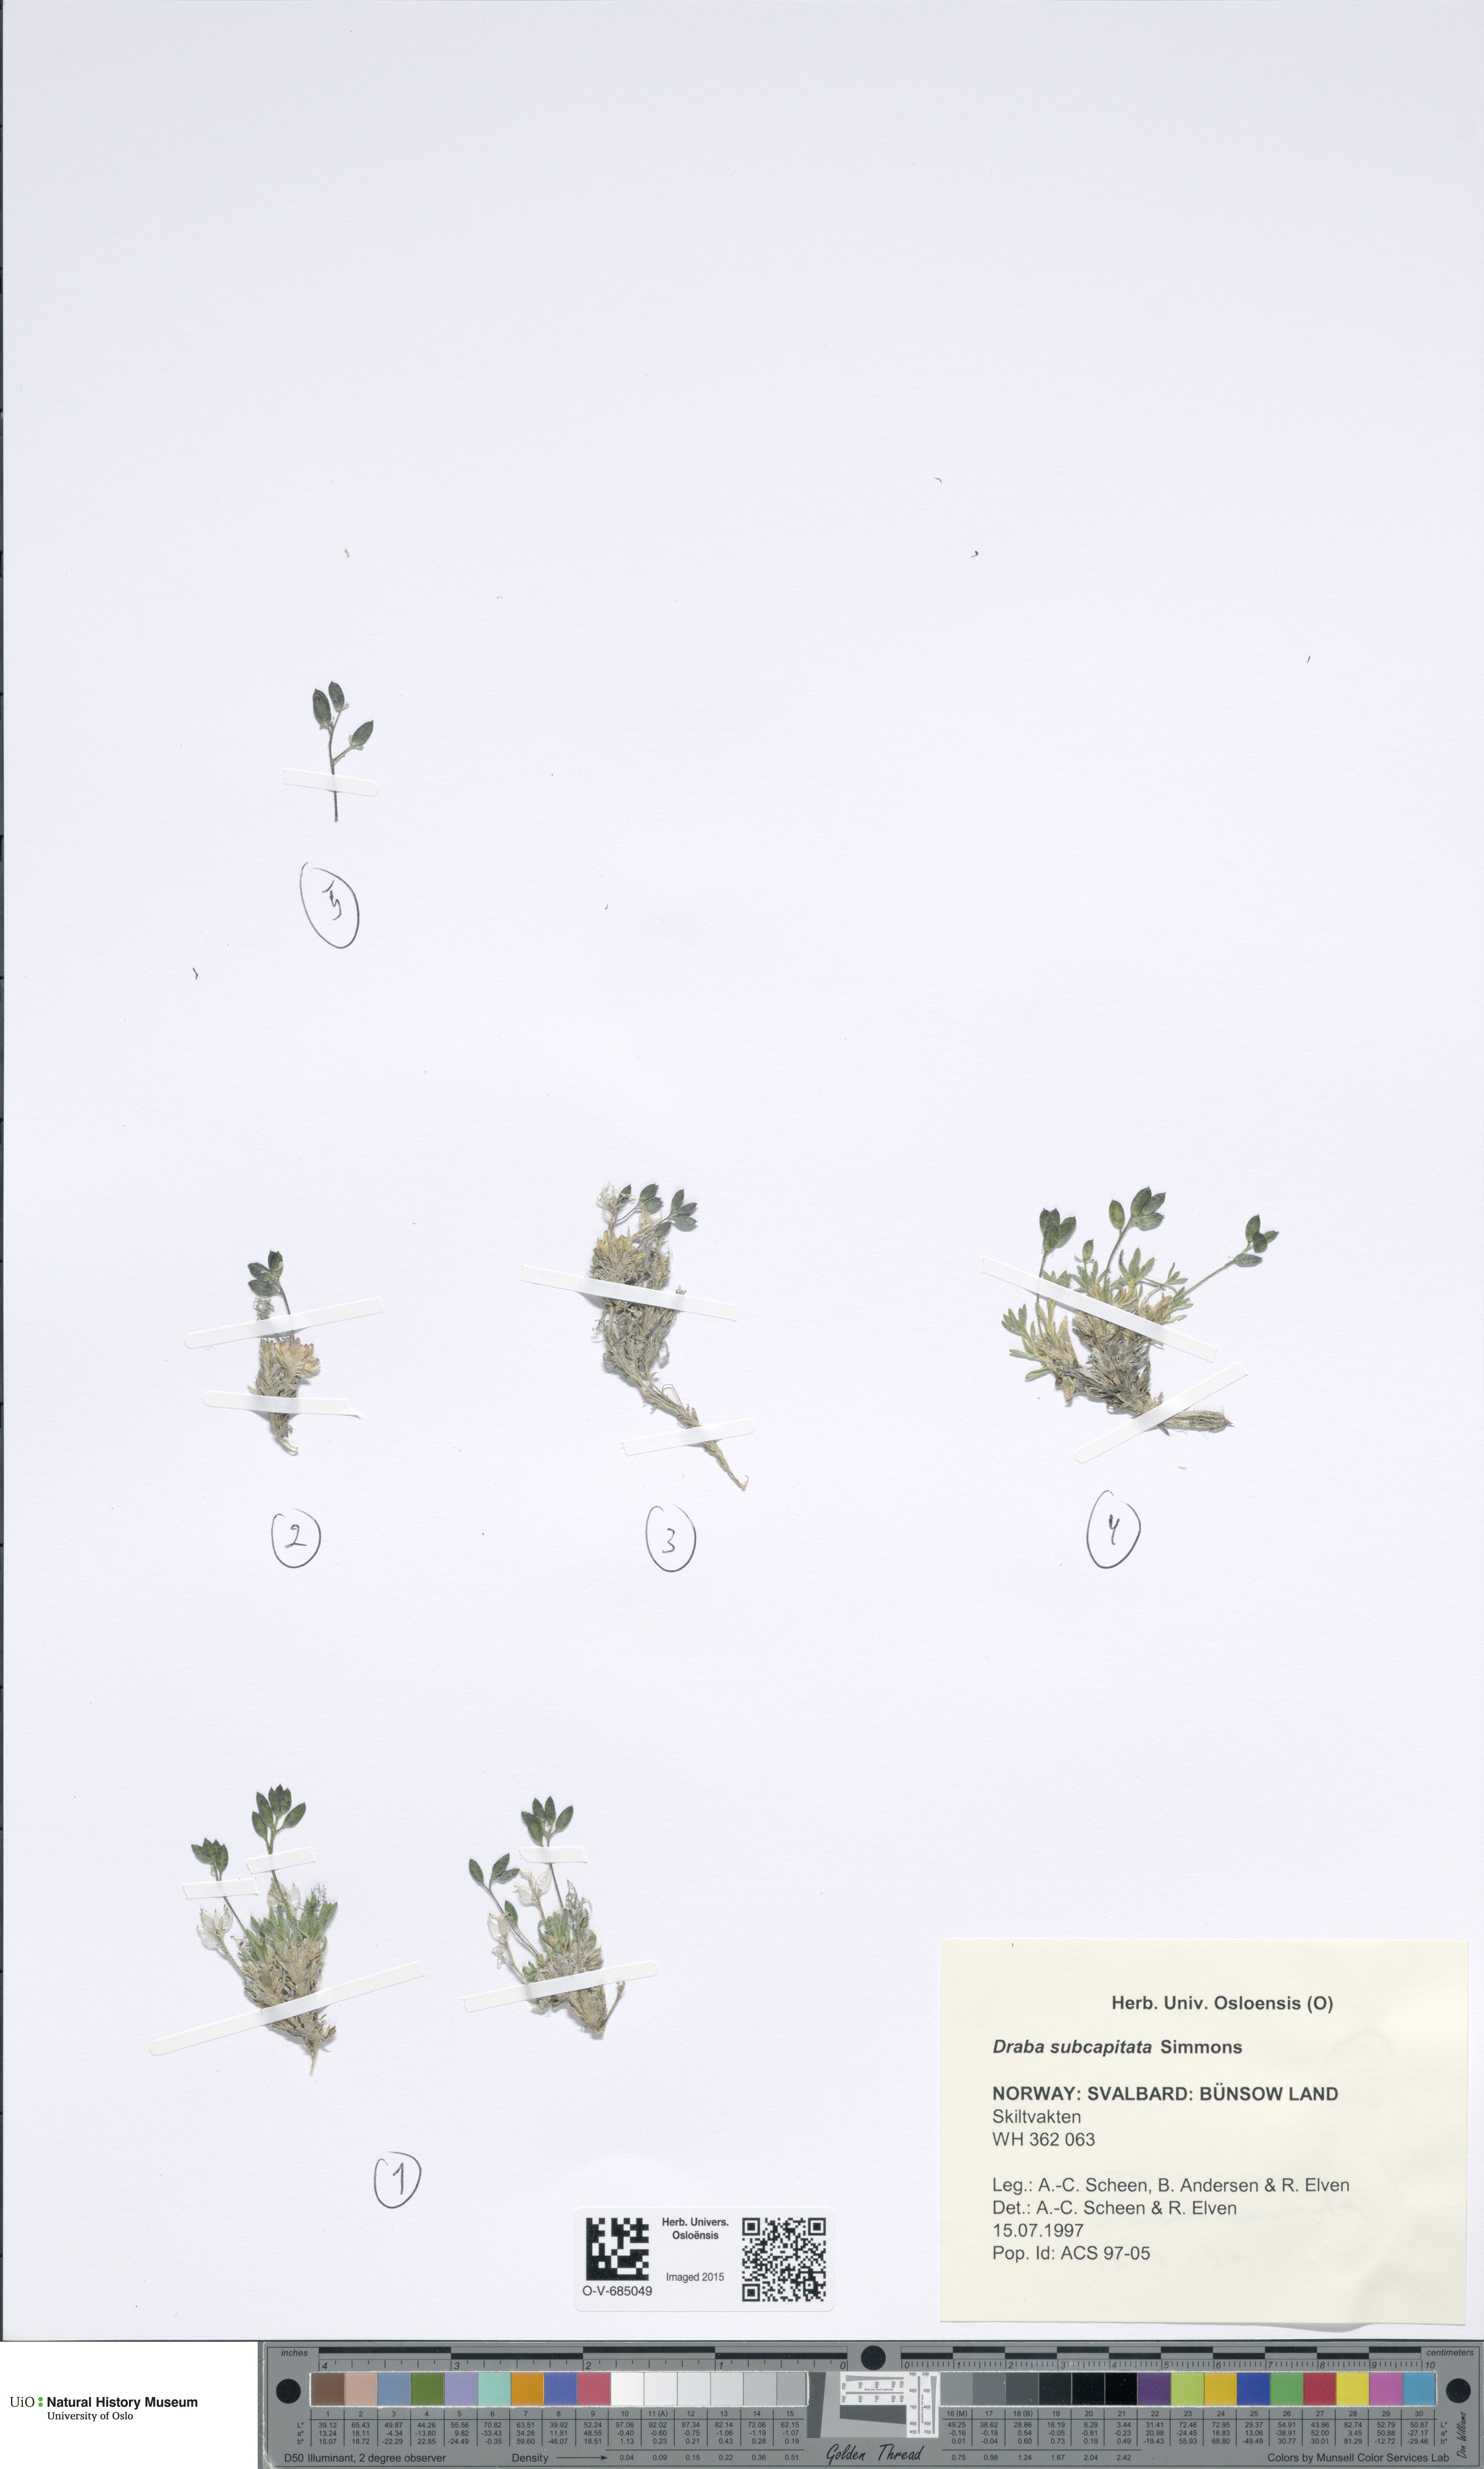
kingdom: Plantae
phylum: Tracheophyta
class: Magnoliopsida
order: Brassicales
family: Brassicaceae
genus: Draba
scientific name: Draba subcapitata
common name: Ellesmere island draba
